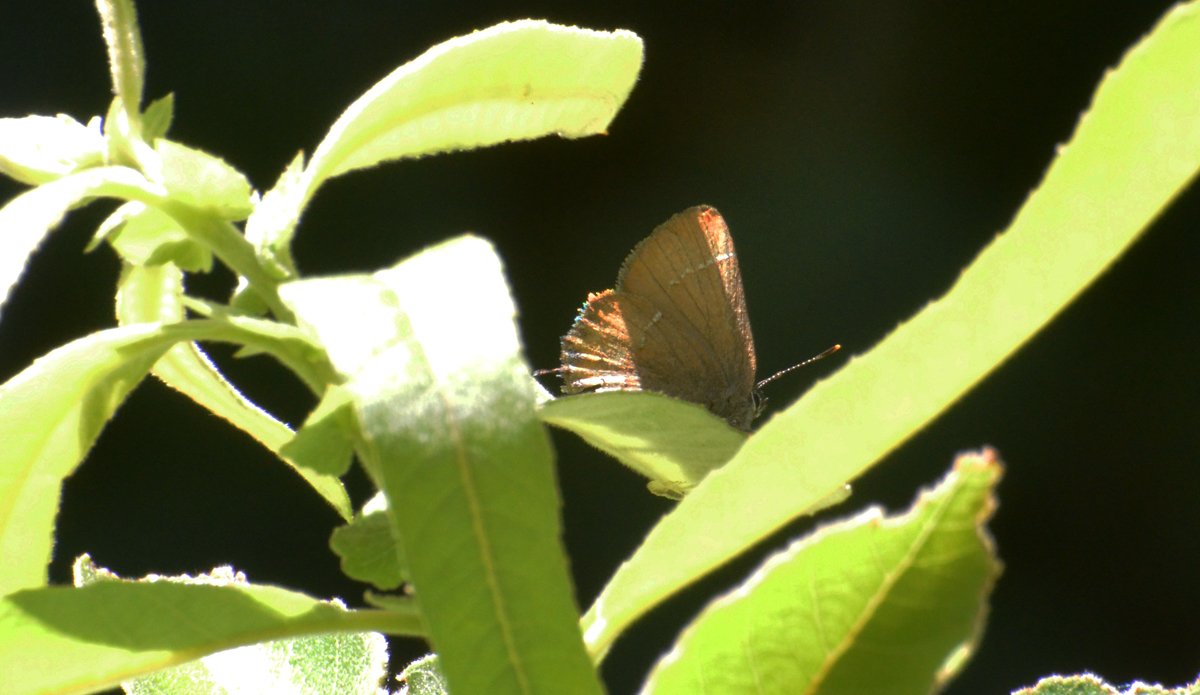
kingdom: Animalia
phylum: Arthropoda
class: Insecta
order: Lepidoptera
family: Lycaenidae
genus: Mitoura
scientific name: Mitoura nelsoni
